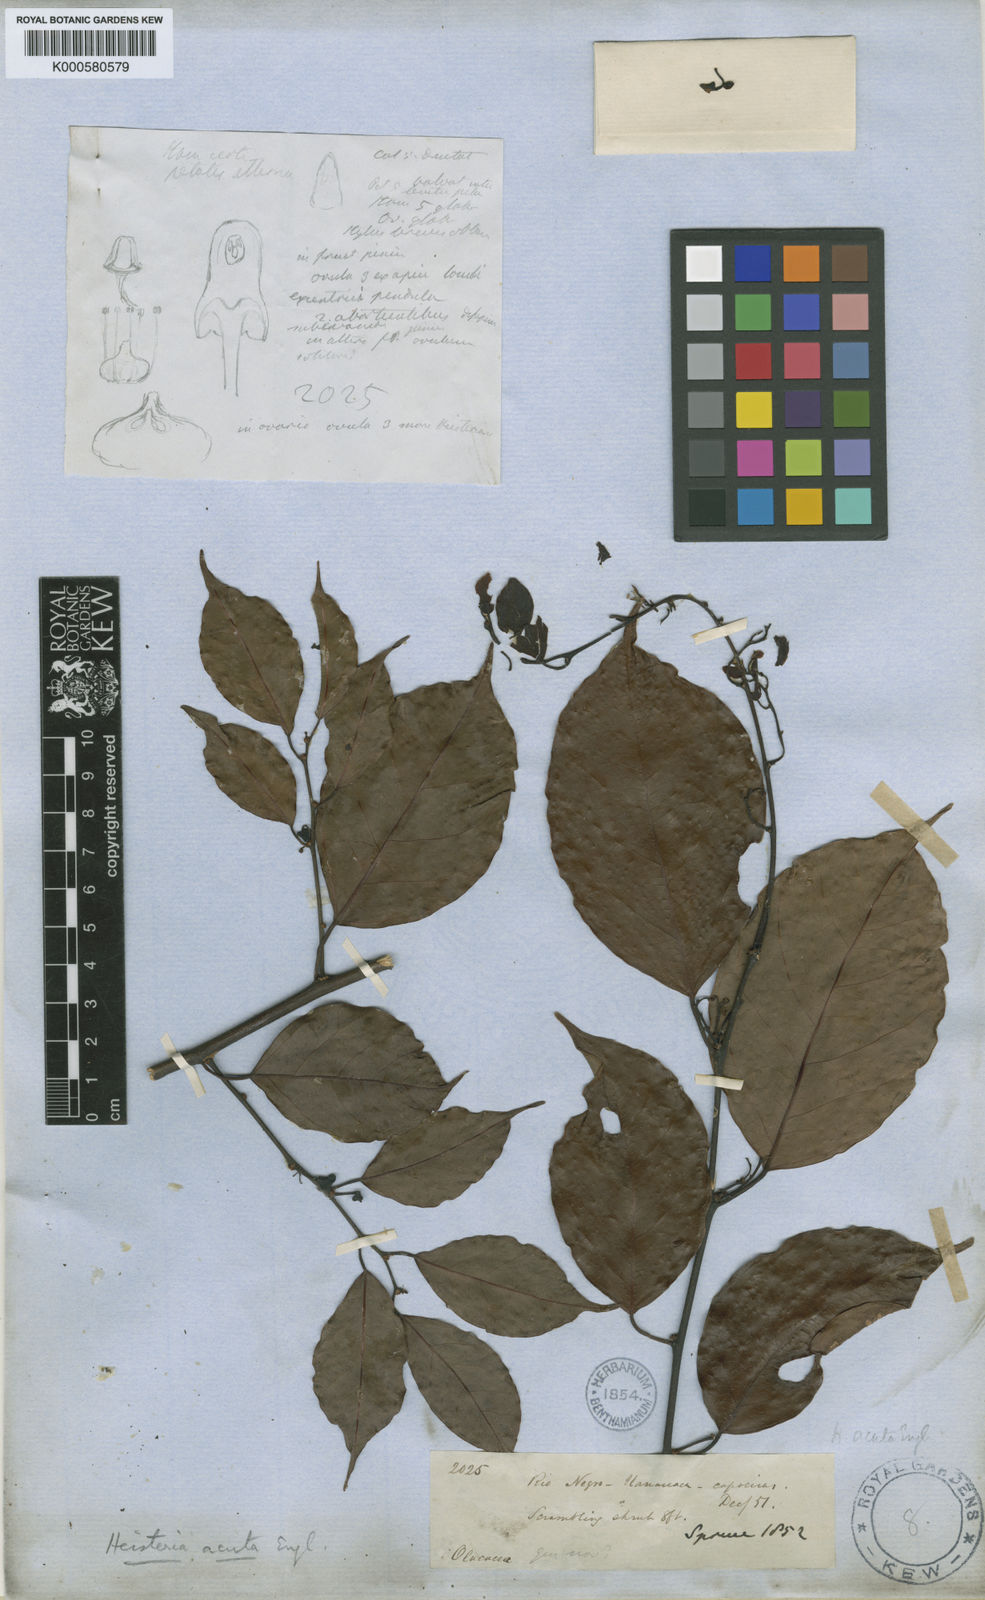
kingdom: Plantae
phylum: Tracheophyta
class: Magnoliopsida
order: Santalales
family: Erythropalaceae
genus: Heisteria
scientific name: Heisteria pentandra
